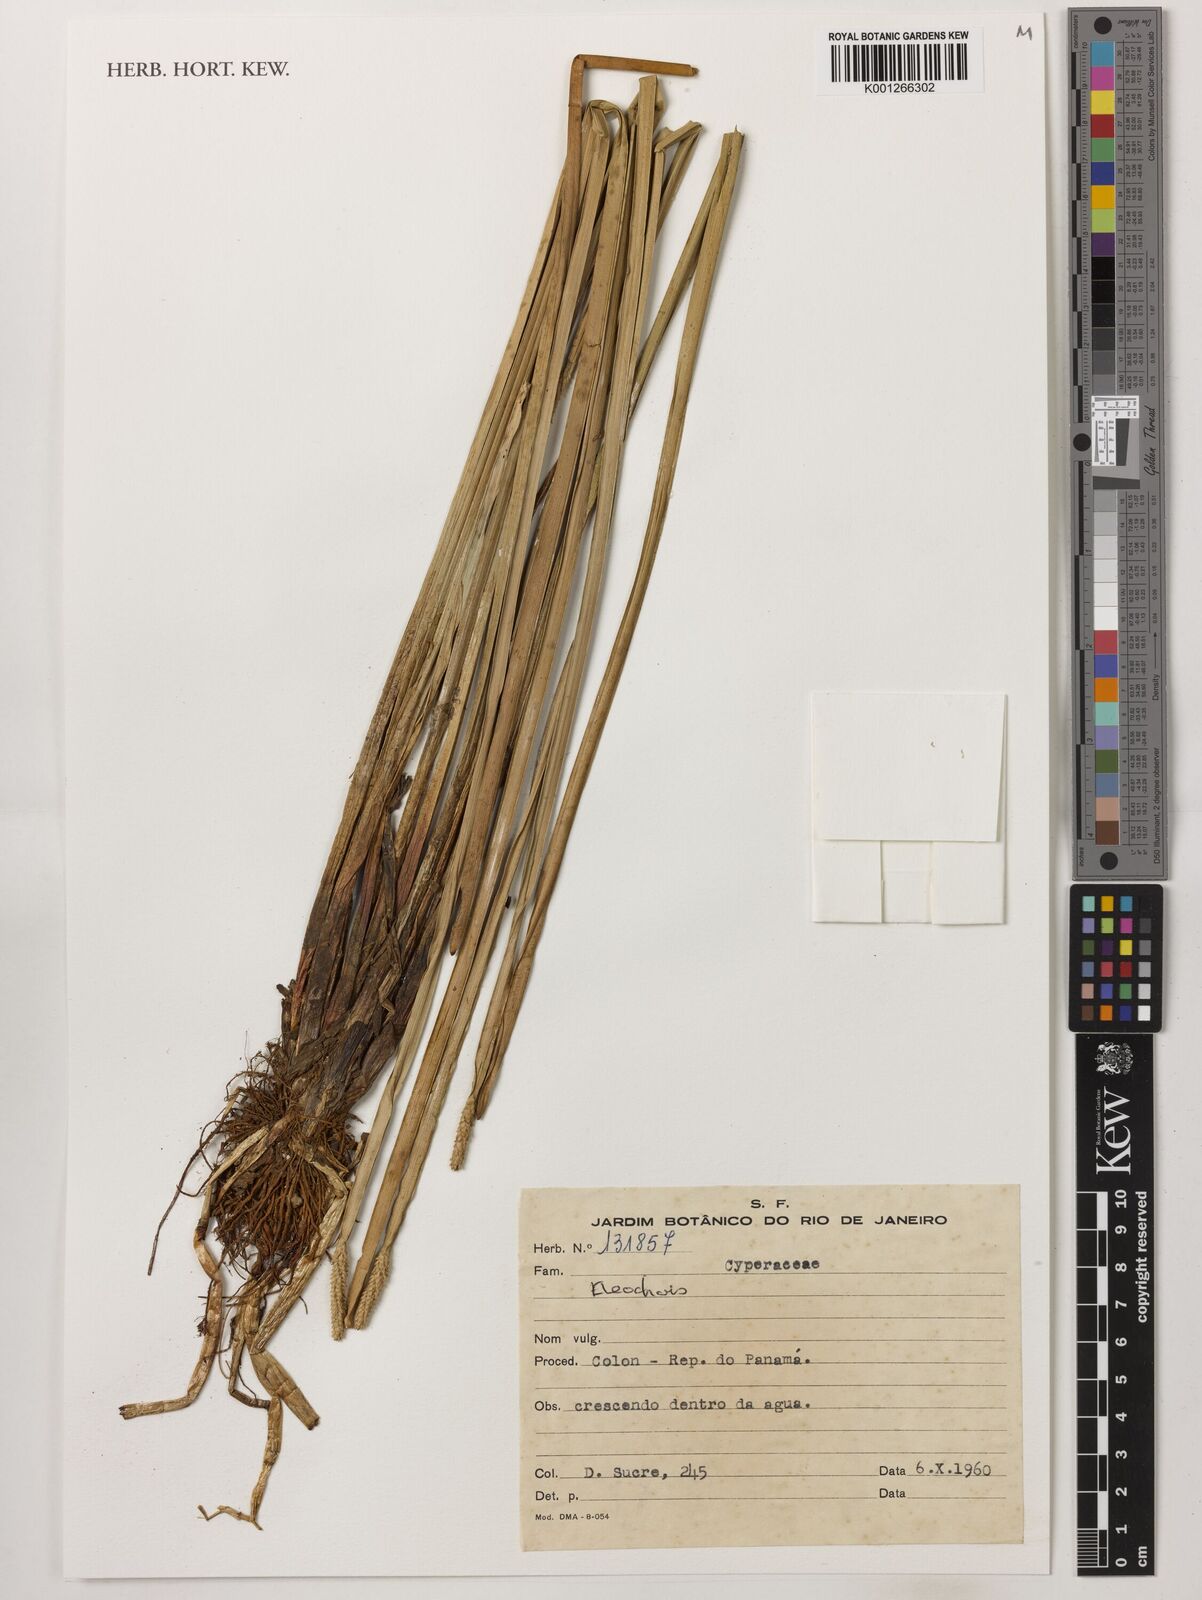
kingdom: Plantae
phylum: Tracheophyta
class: Liliopsida
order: Poales
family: Cyperaceae
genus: Eleocharis
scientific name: Eleocharis
